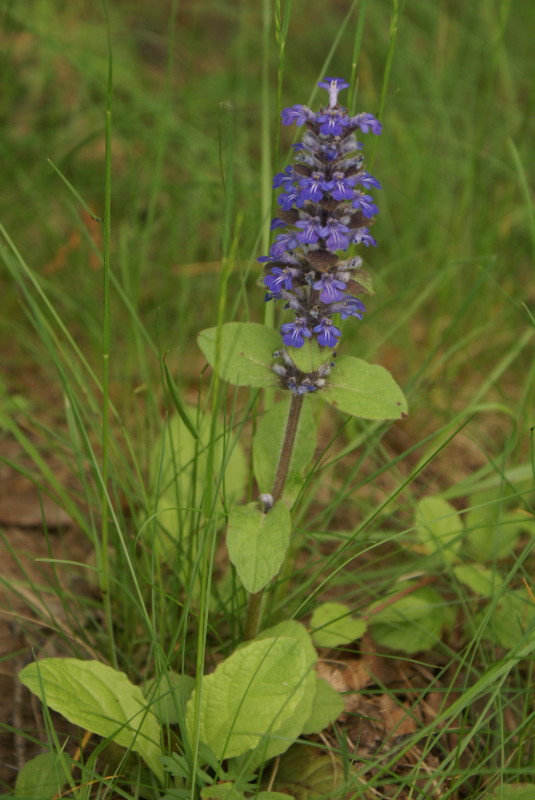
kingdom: Plantae
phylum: Tracheophyta
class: Magnoliopsida
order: Lamiales
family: Lamiaceae
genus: Ajuga
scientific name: Ajuga reptans
